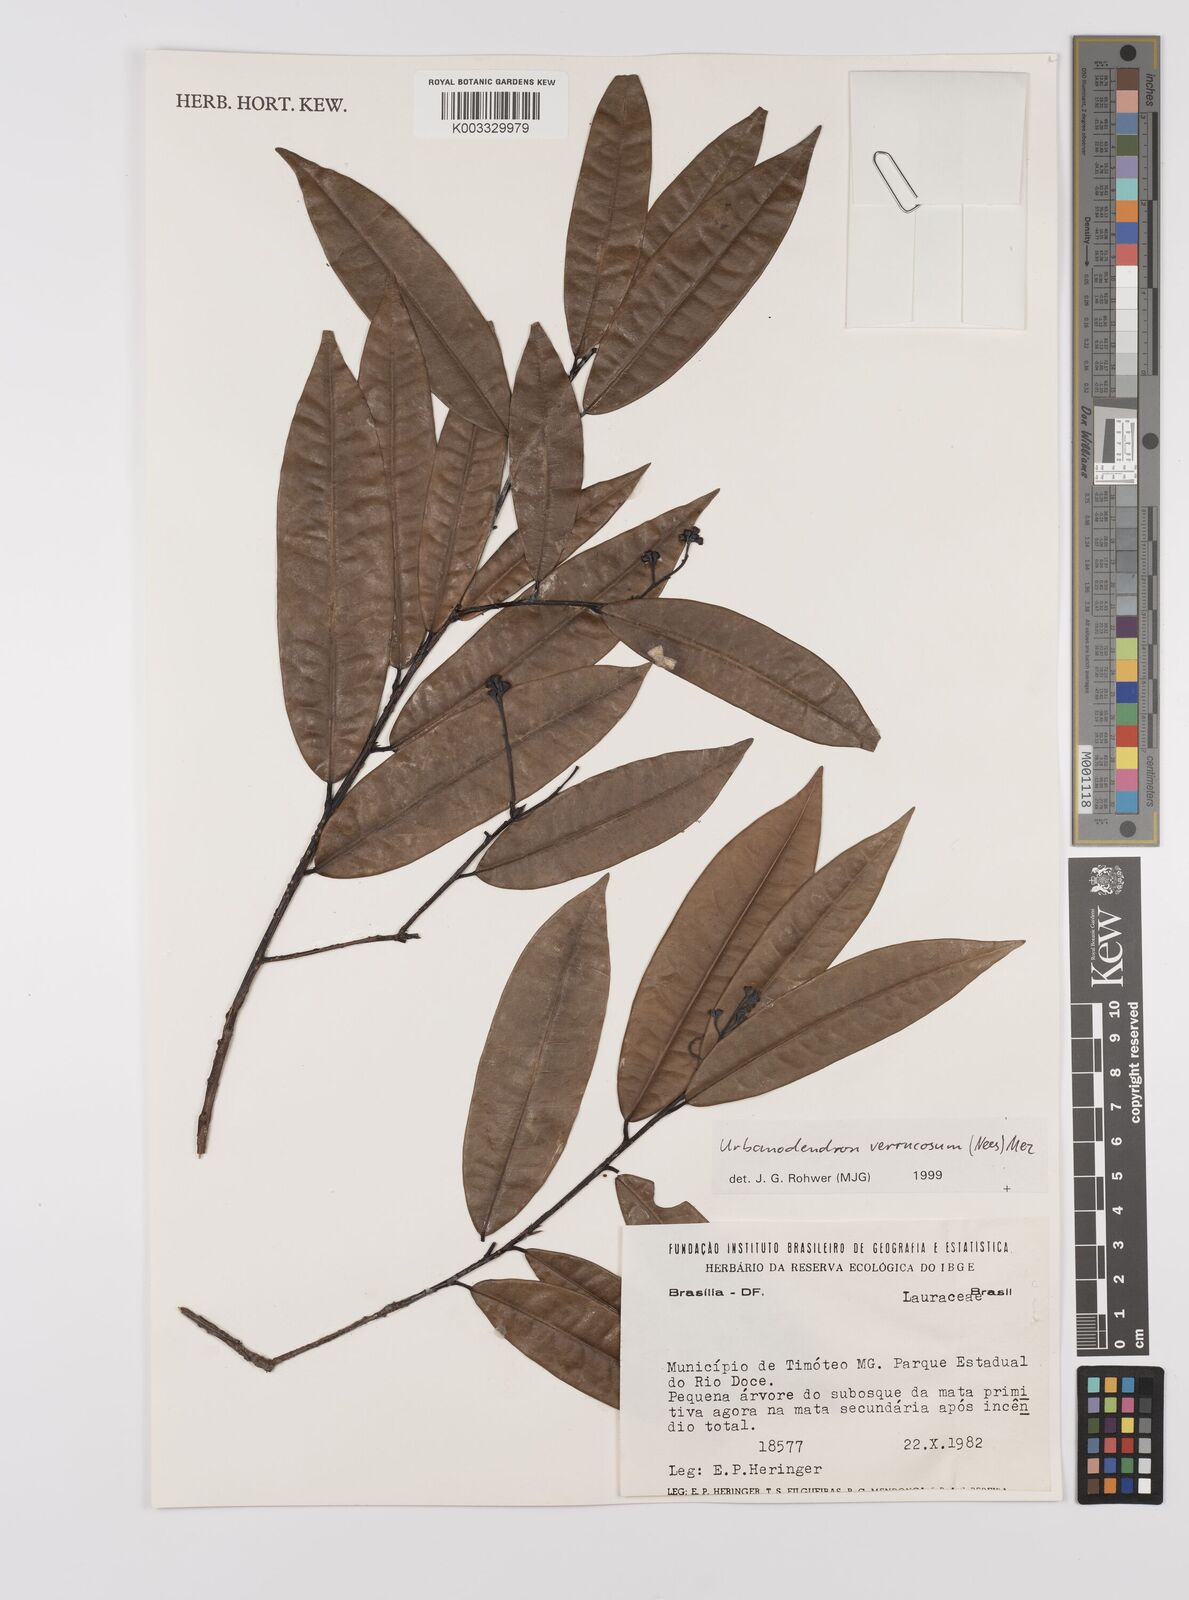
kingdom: Plantae
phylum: Tracheophyta
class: Magnoliopsida
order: Laurales
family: Lauraceae
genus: Urbanodendron
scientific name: Urbanodendron verrucosum
